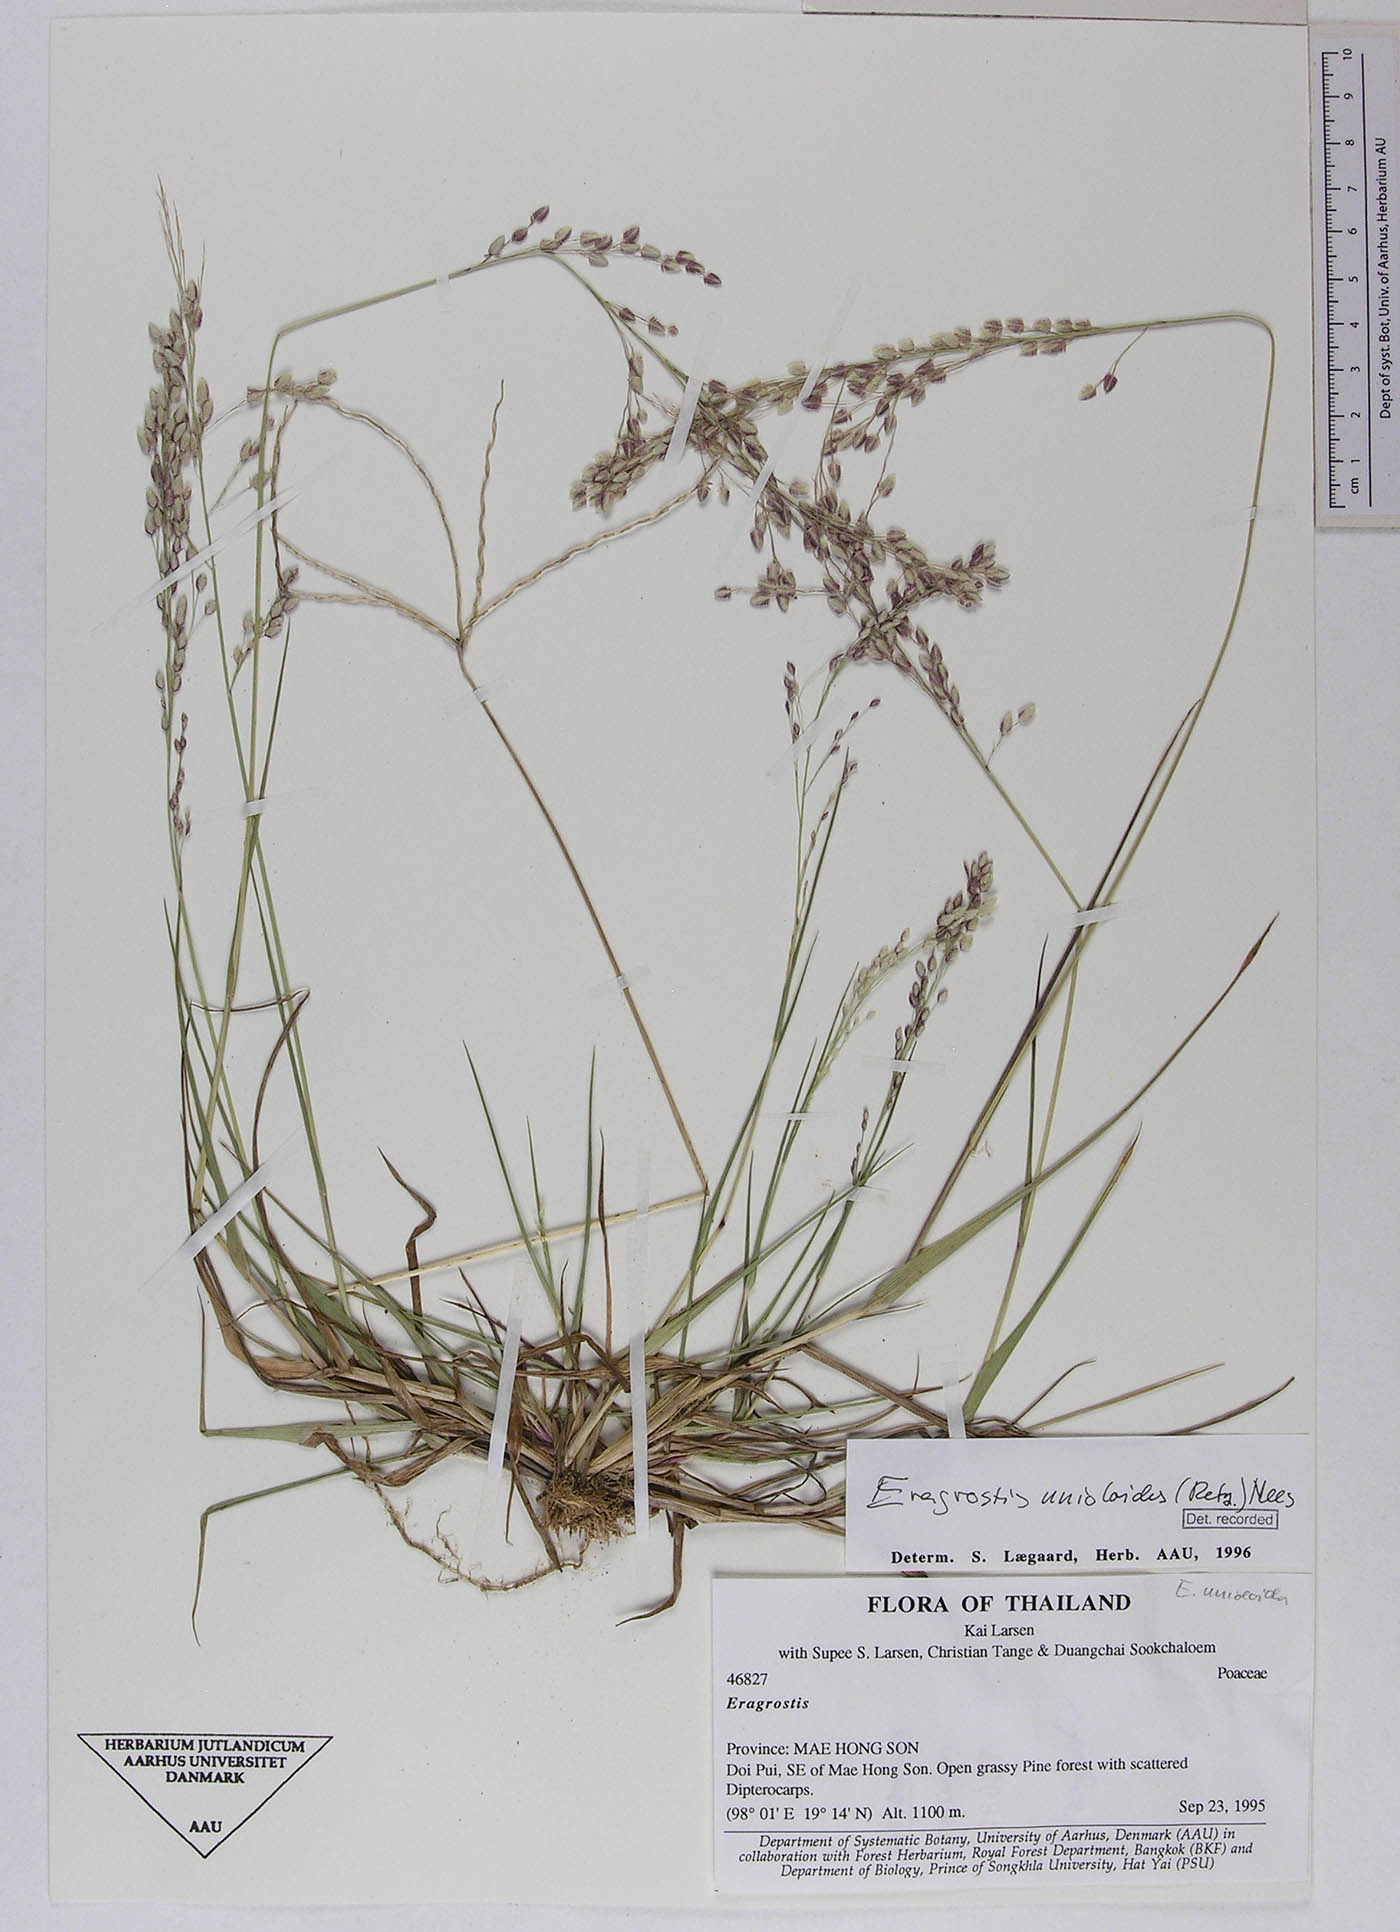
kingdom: Plantae
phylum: Tracheophyta
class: Liliopsida
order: Poales
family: Poaceae
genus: Eragrostis
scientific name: Eragrostis unioloides
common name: Chinese lovegrass
